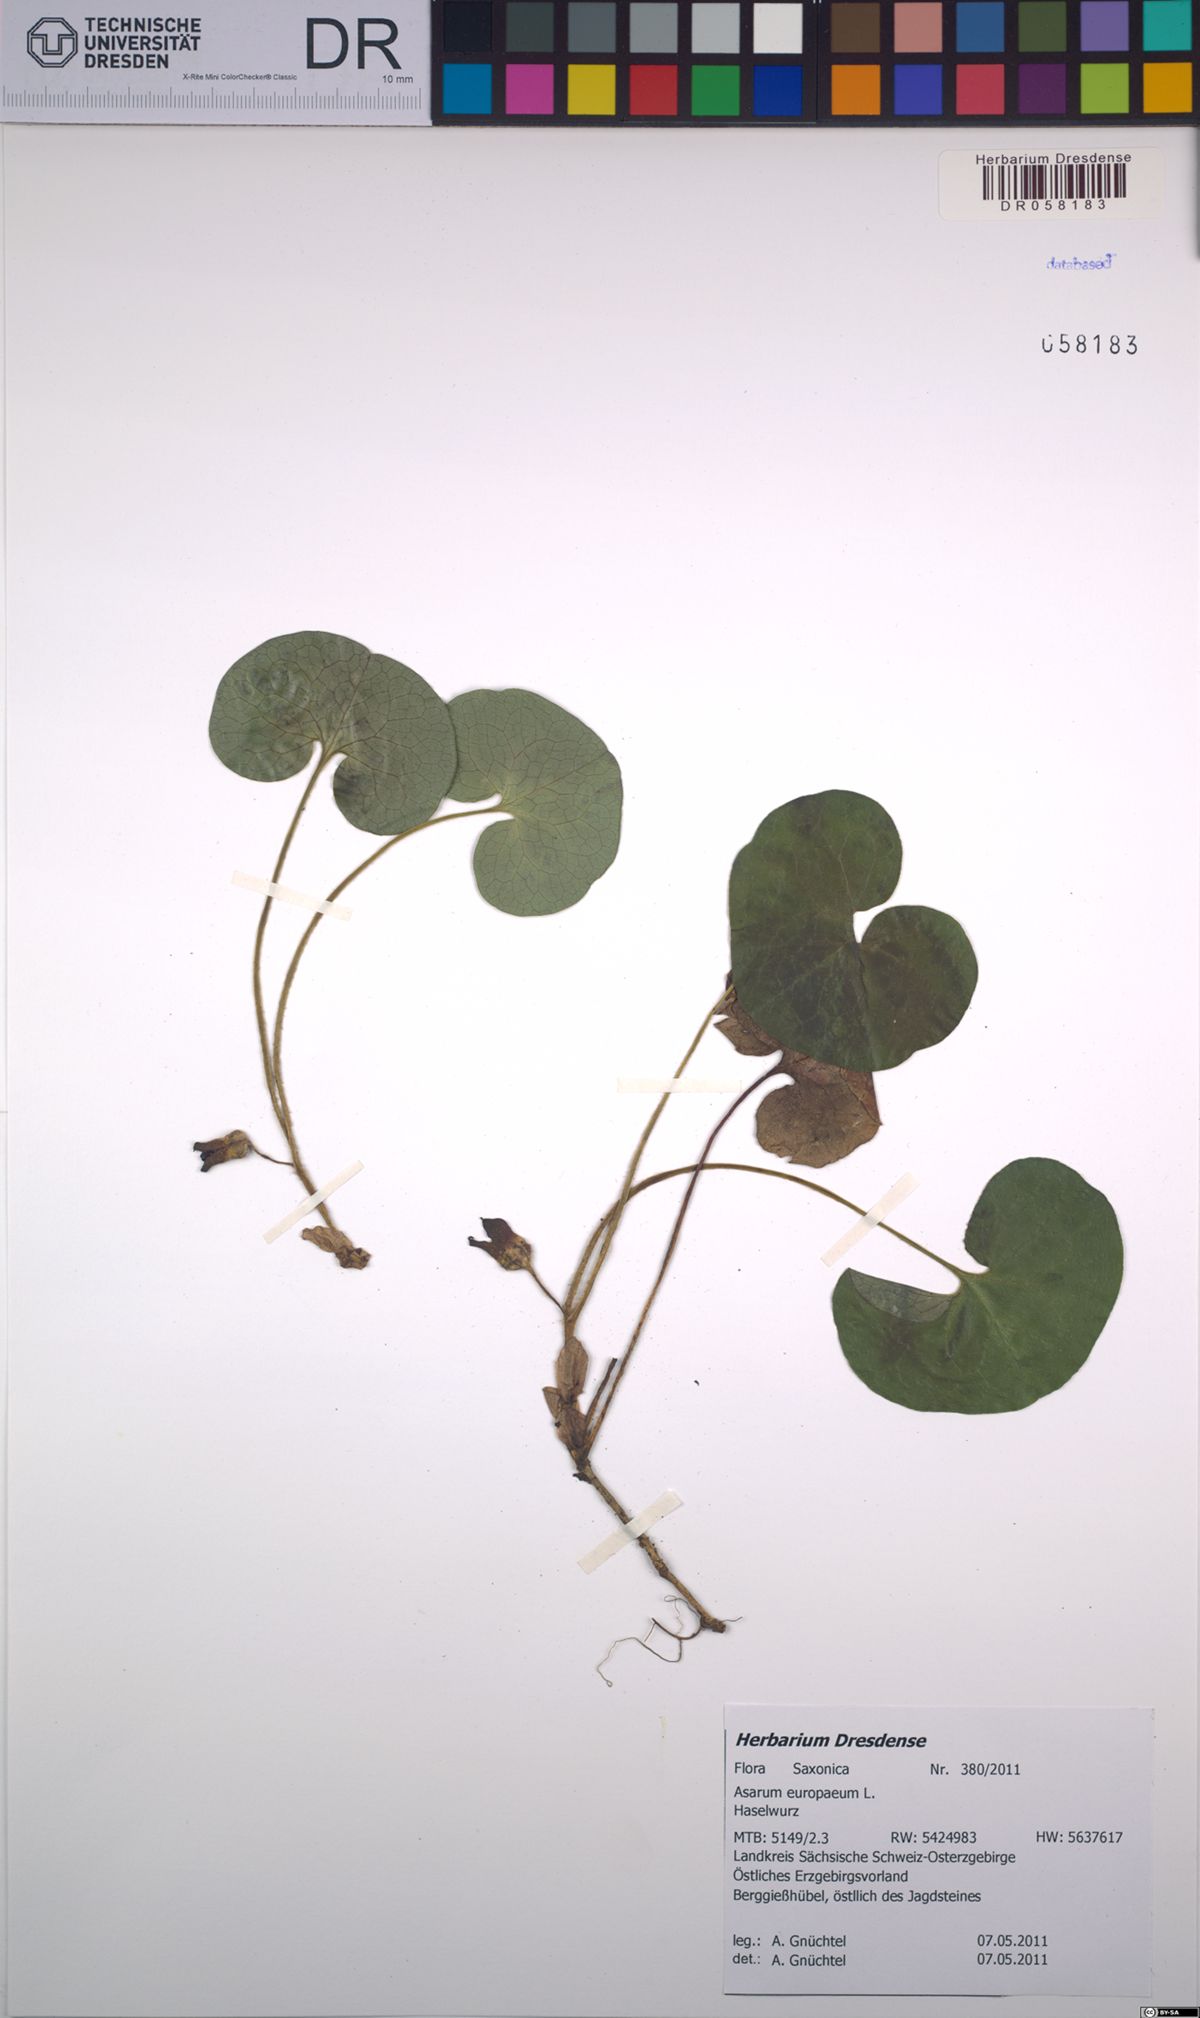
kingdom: Plantae
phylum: Tracheophyta
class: Magnoliopsida
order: Piperales
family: Aristolochiaceae
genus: Asarum
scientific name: Asarum europaeum
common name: Asarabacca
